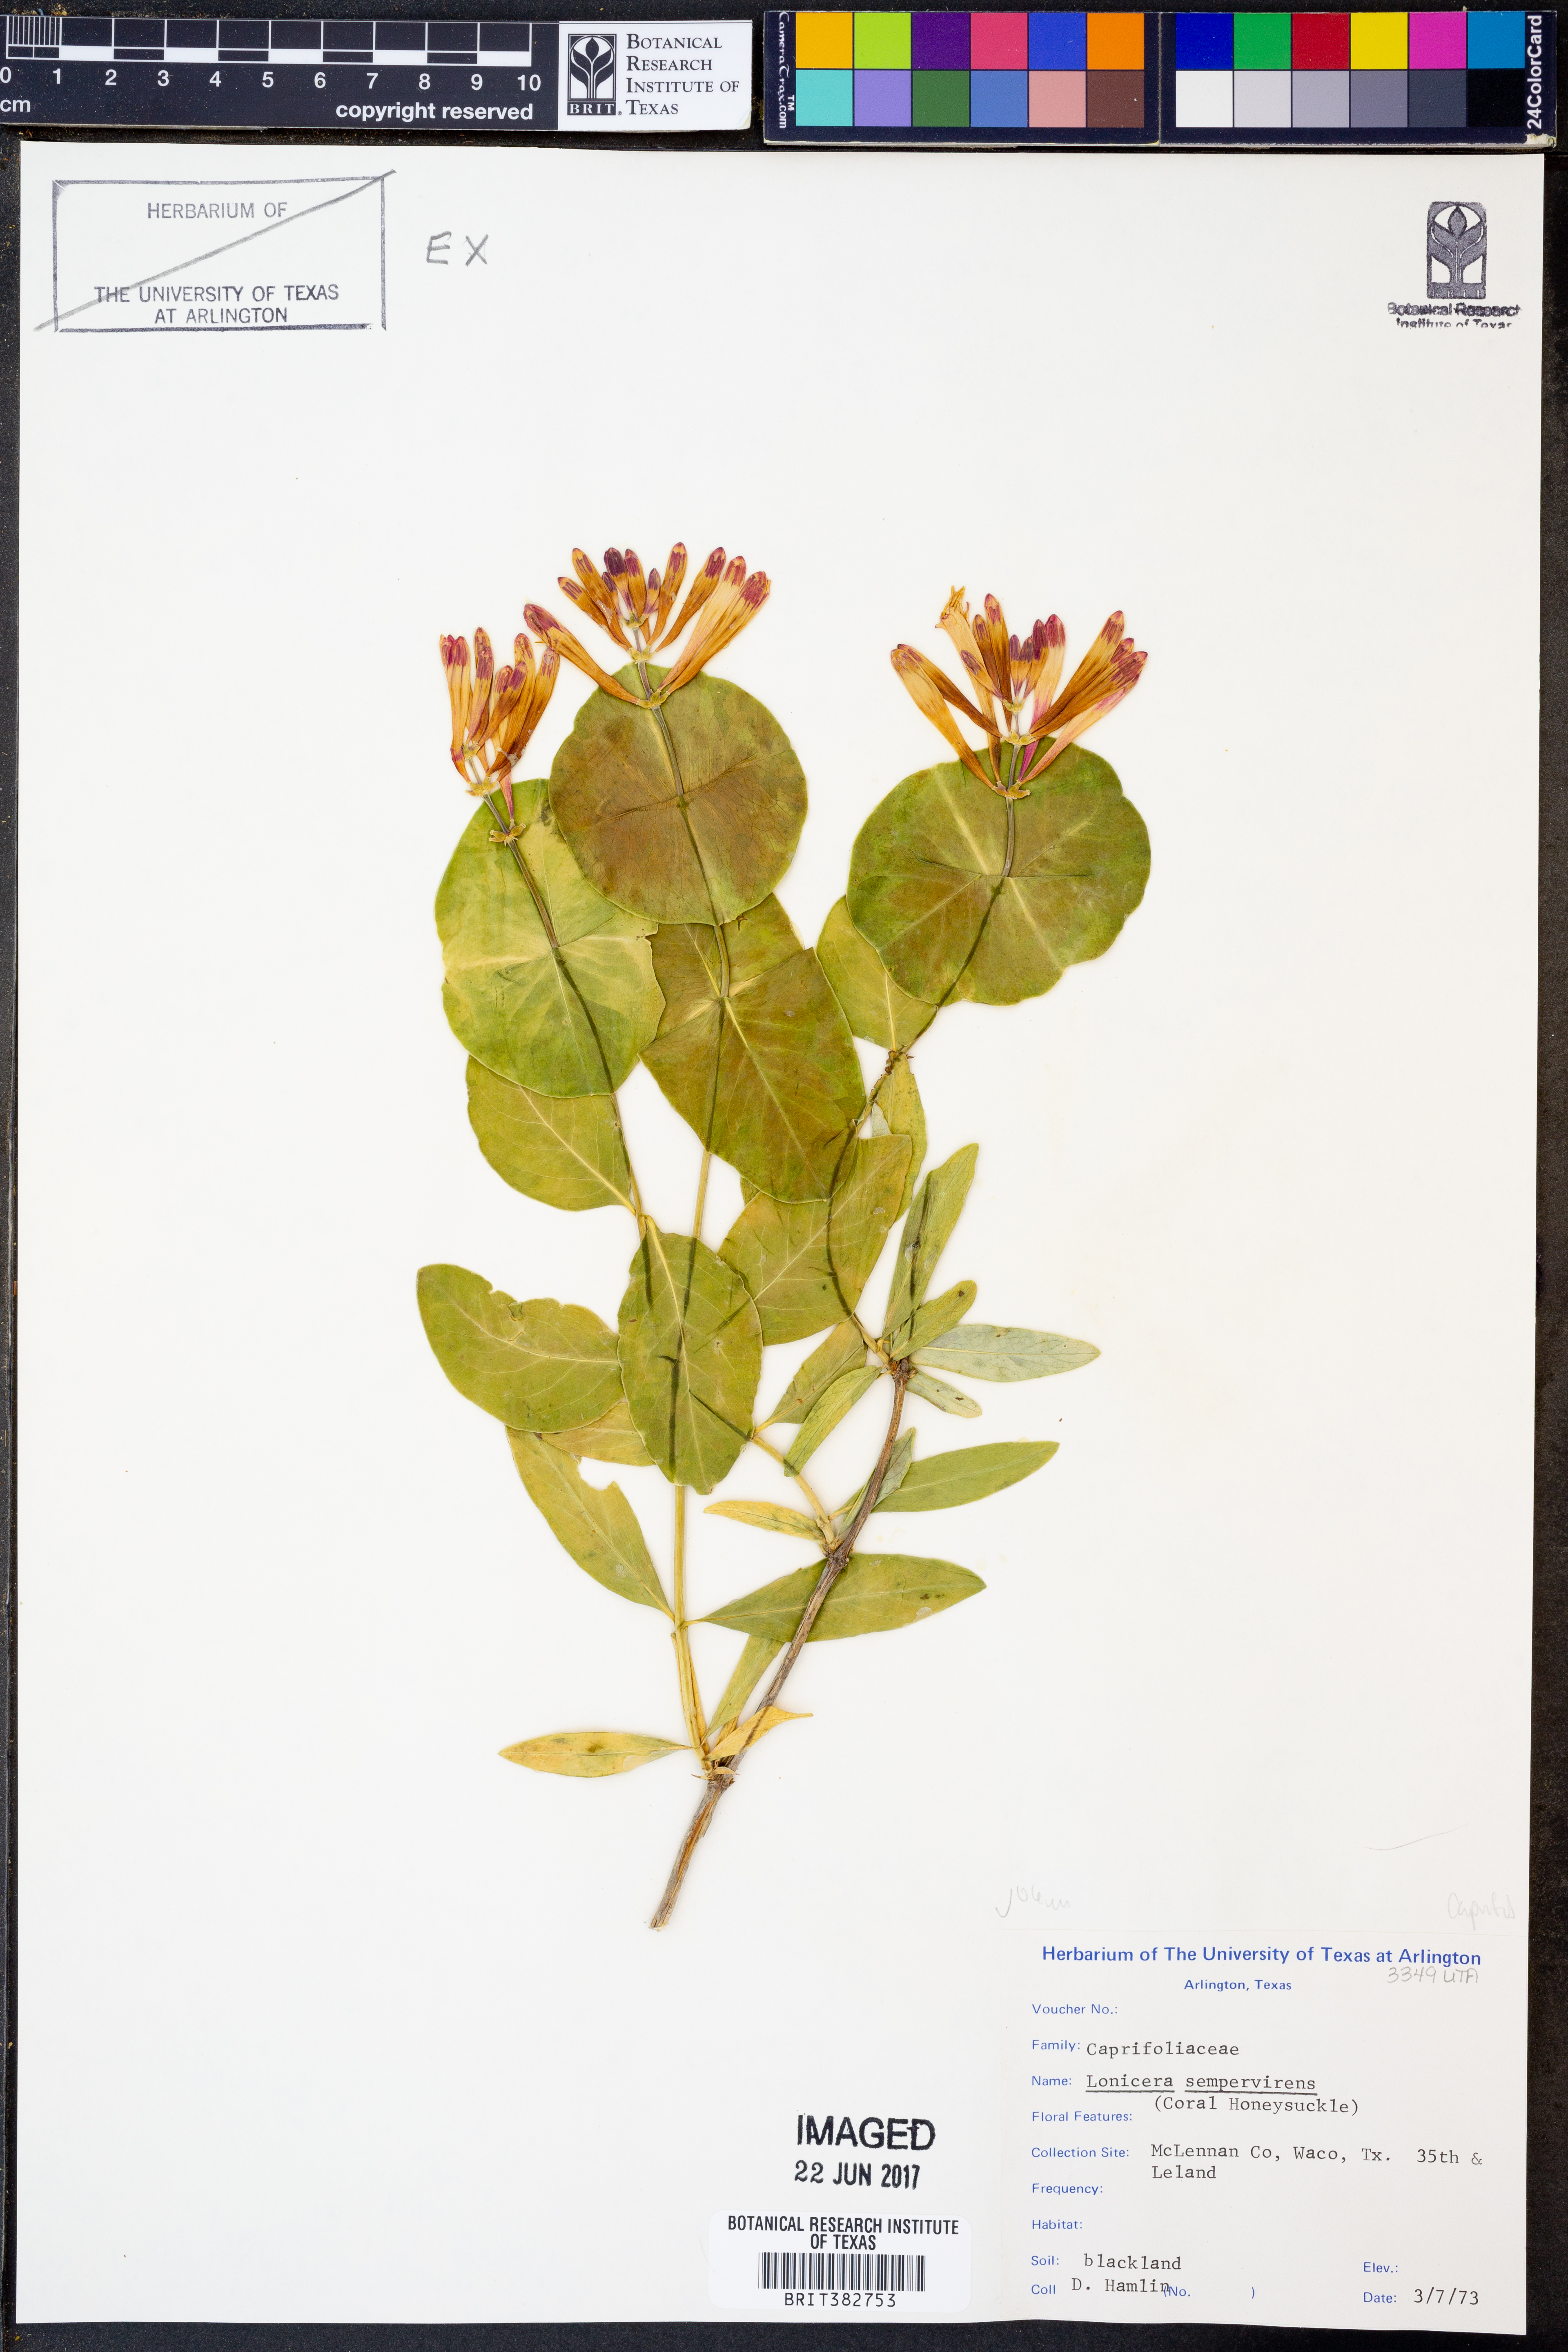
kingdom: Plantae
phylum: Tracheophyta
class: Magnoliopsida
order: Dipsacales
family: Caprifoliaceae
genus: Lonicera
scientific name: Lonicera sempervirens
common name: Coral honeysuckle
